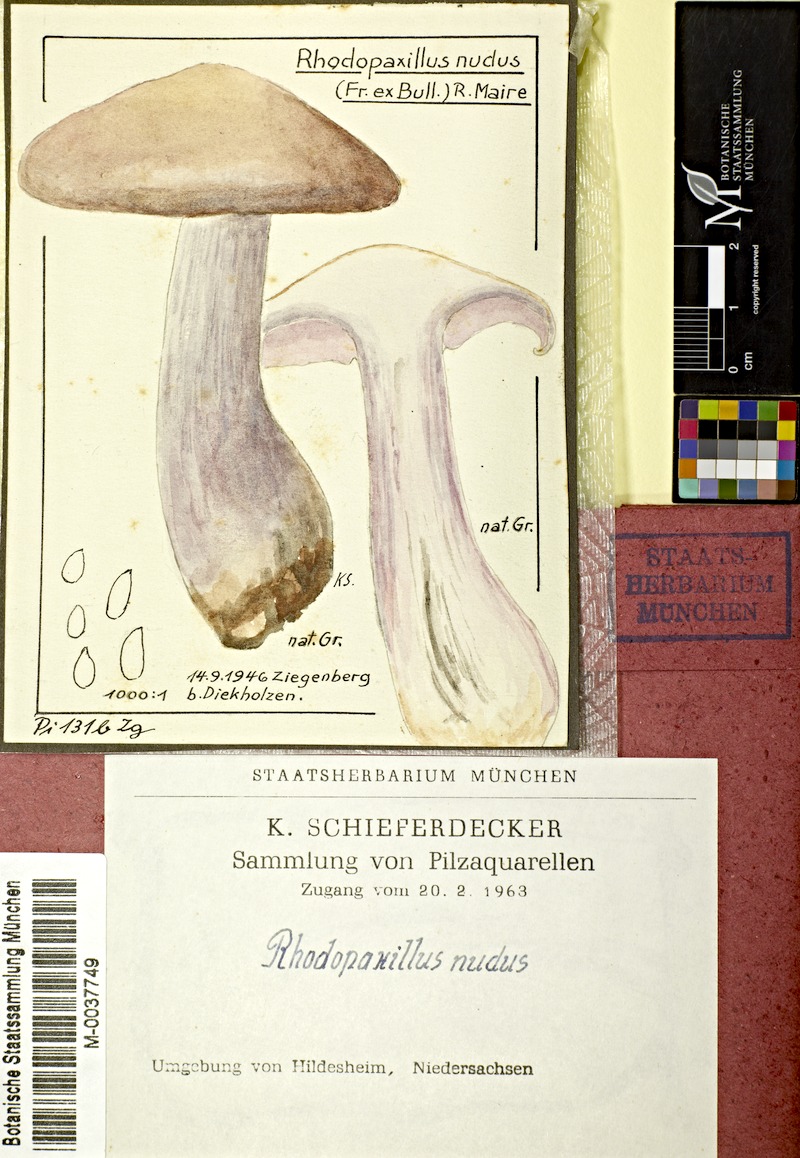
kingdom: Fungi
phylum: Basidiomycota
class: Agaricomycetes
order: Agaricales
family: Tricholomataceae
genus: Lepista
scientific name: Lepista nuda
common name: Wood blewit
